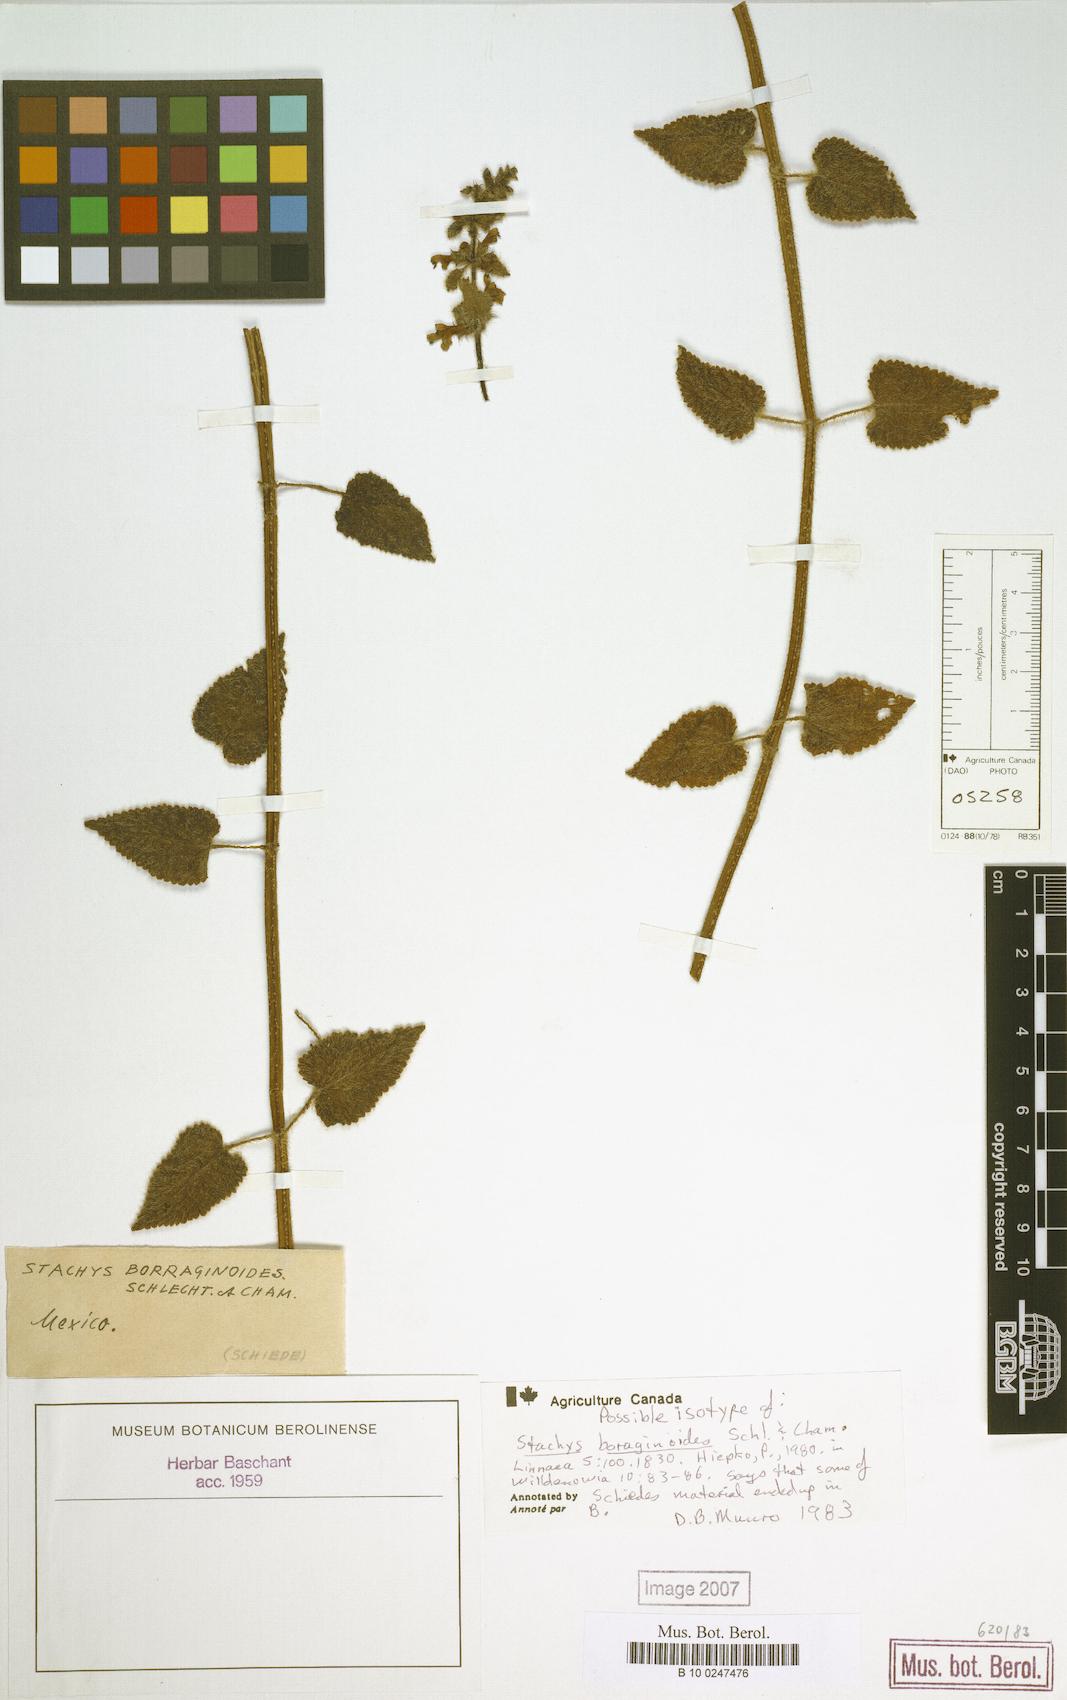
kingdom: Plantae
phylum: Tracheophyta
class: Magnoliopsida
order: Lamiales
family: Lamiaceae
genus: Stachys
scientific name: Stachys boraginoides
